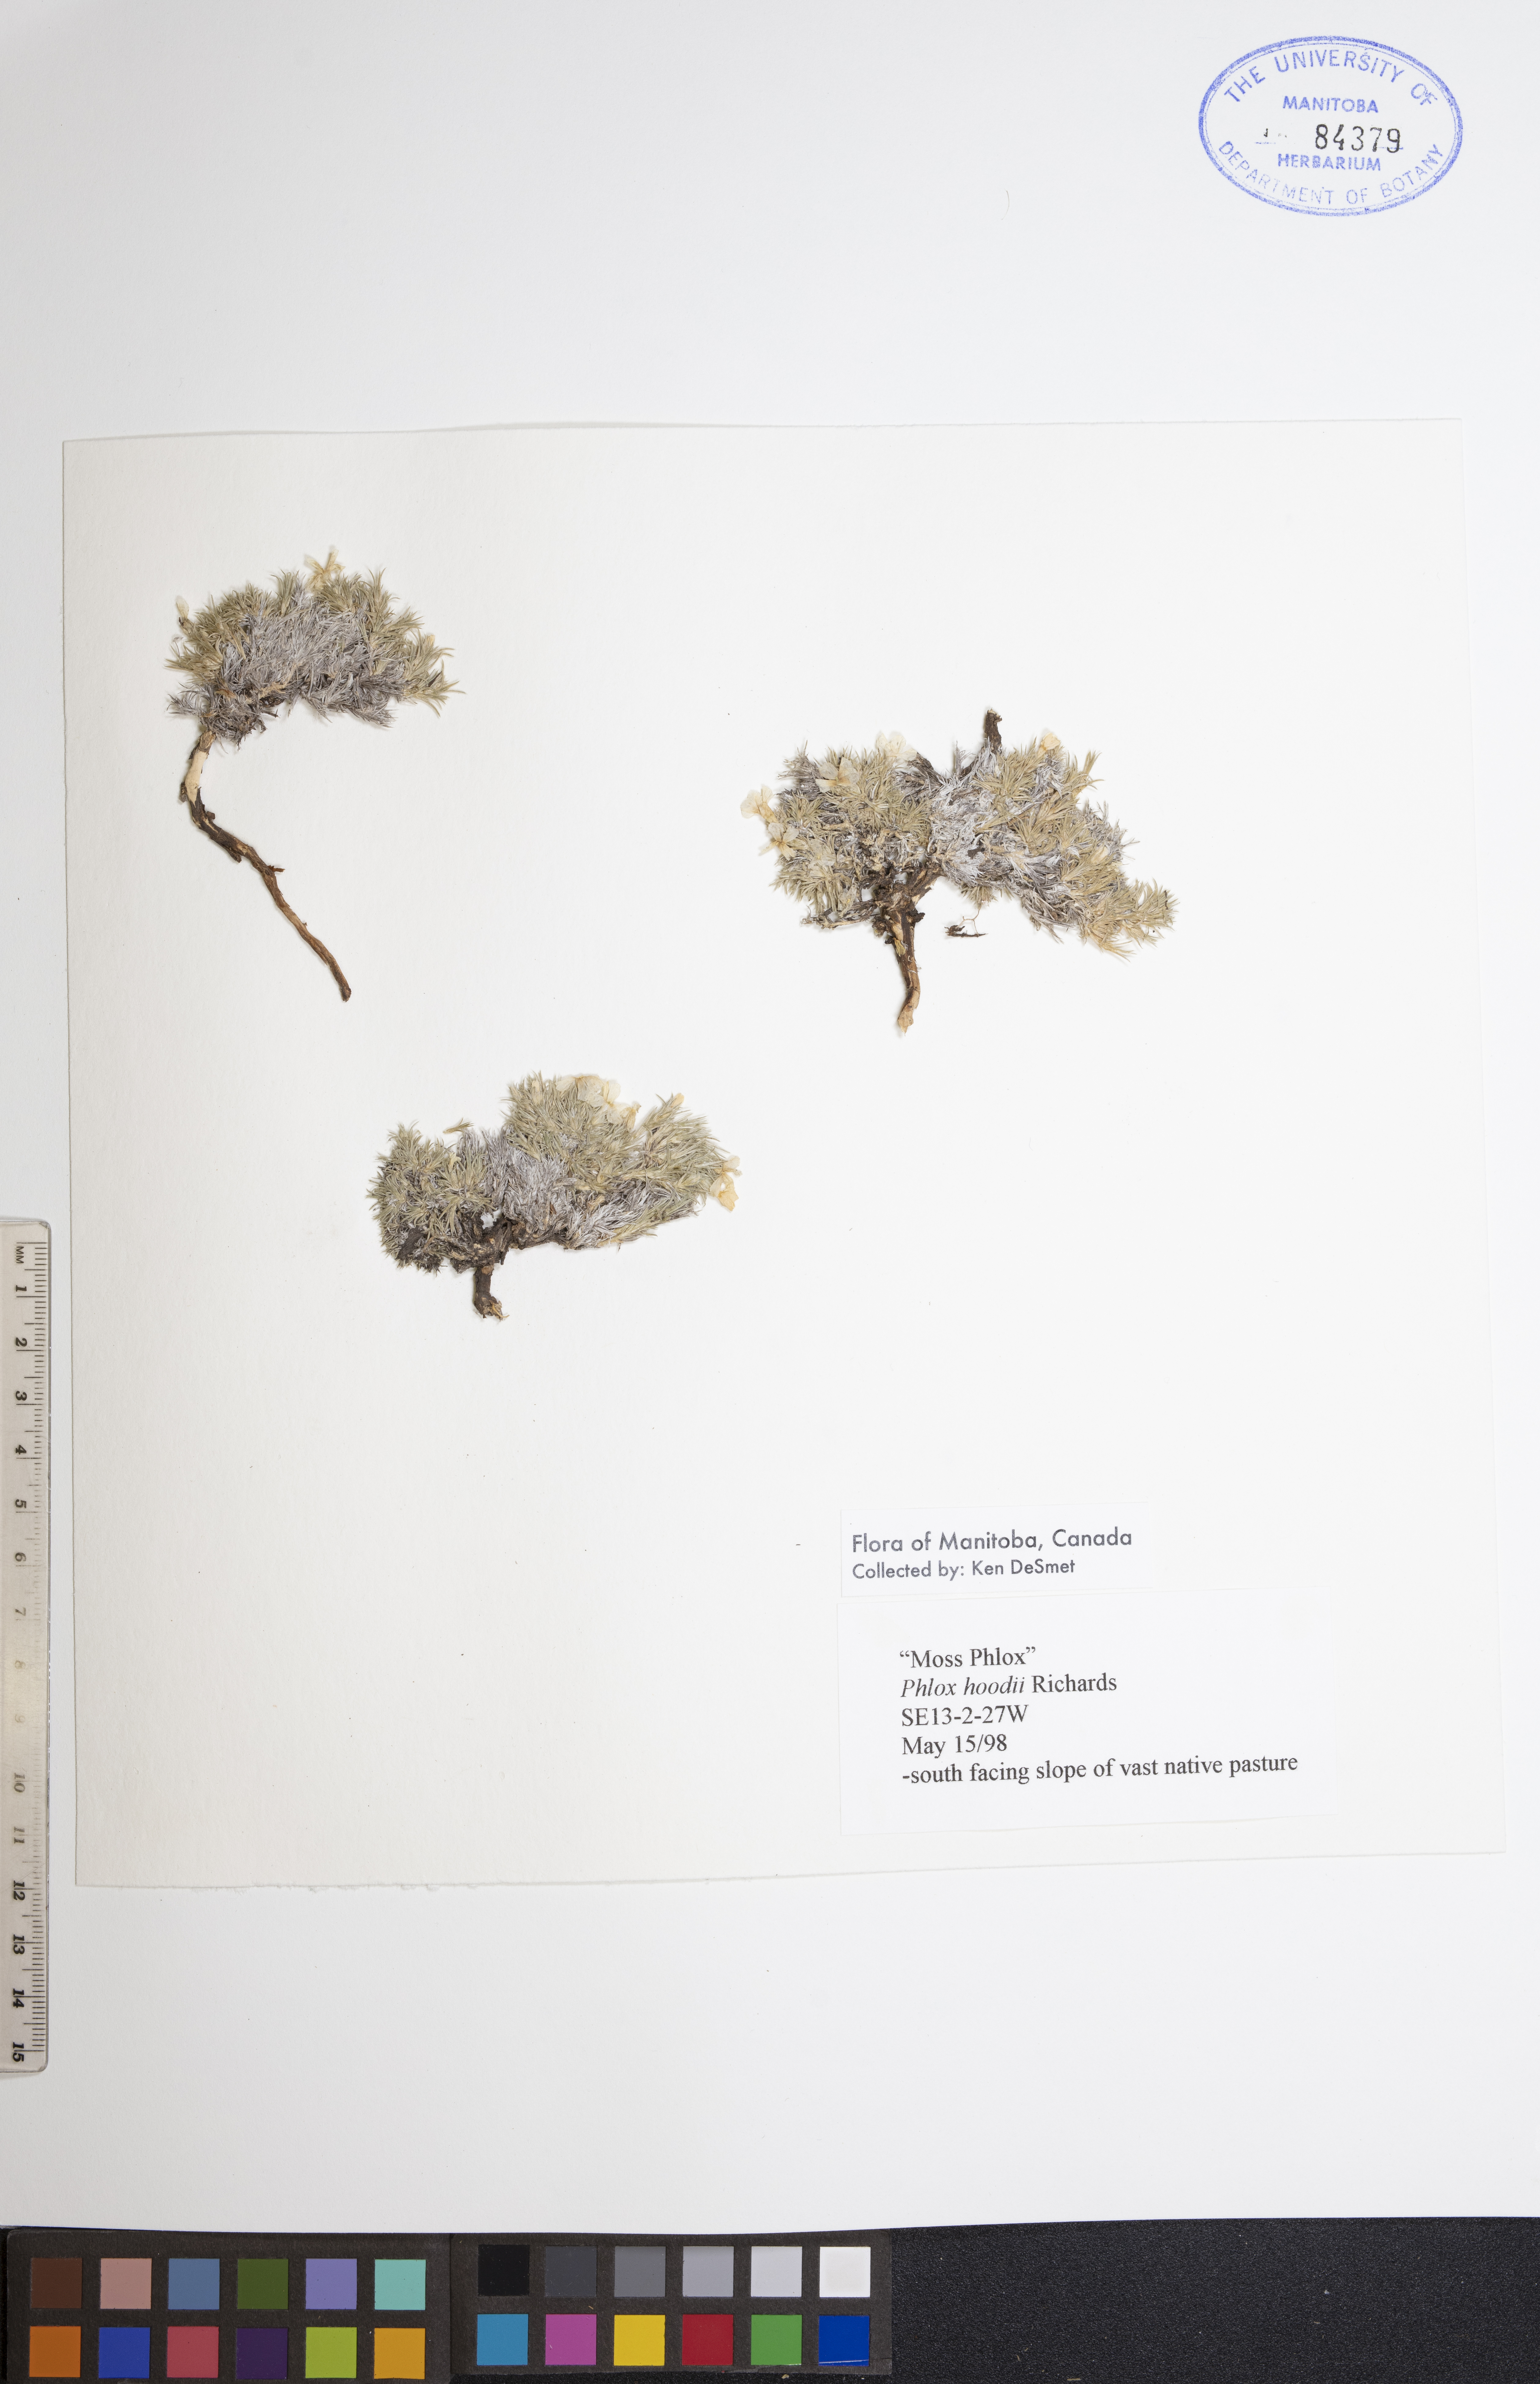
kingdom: Plantae
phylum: Tracheophyta
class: Magnoliopsida
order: Ericales
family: Polemoniaceae
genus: Phlox
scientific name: Phlox hoodii
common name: Moss phlox
